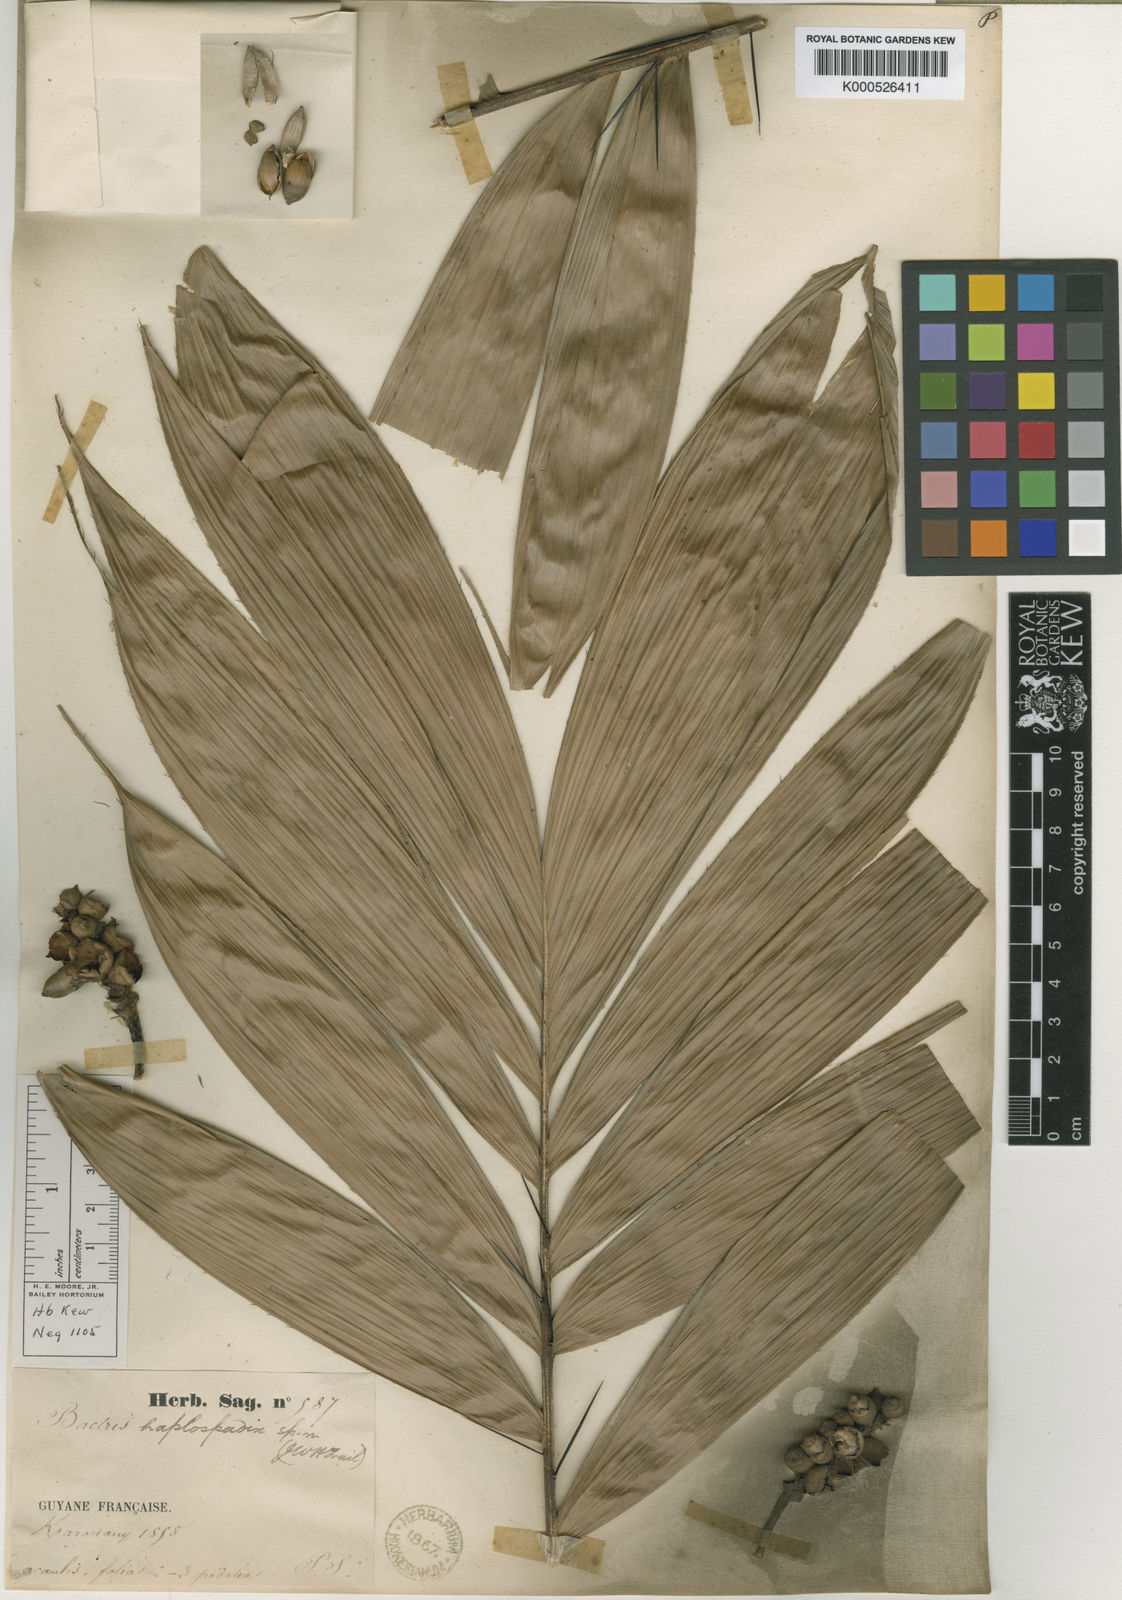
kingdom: Plantae
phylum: Tracheophyta
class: Liliopsida
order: Arecales
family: Arecaceae
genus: Bactris
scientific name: Bactris
